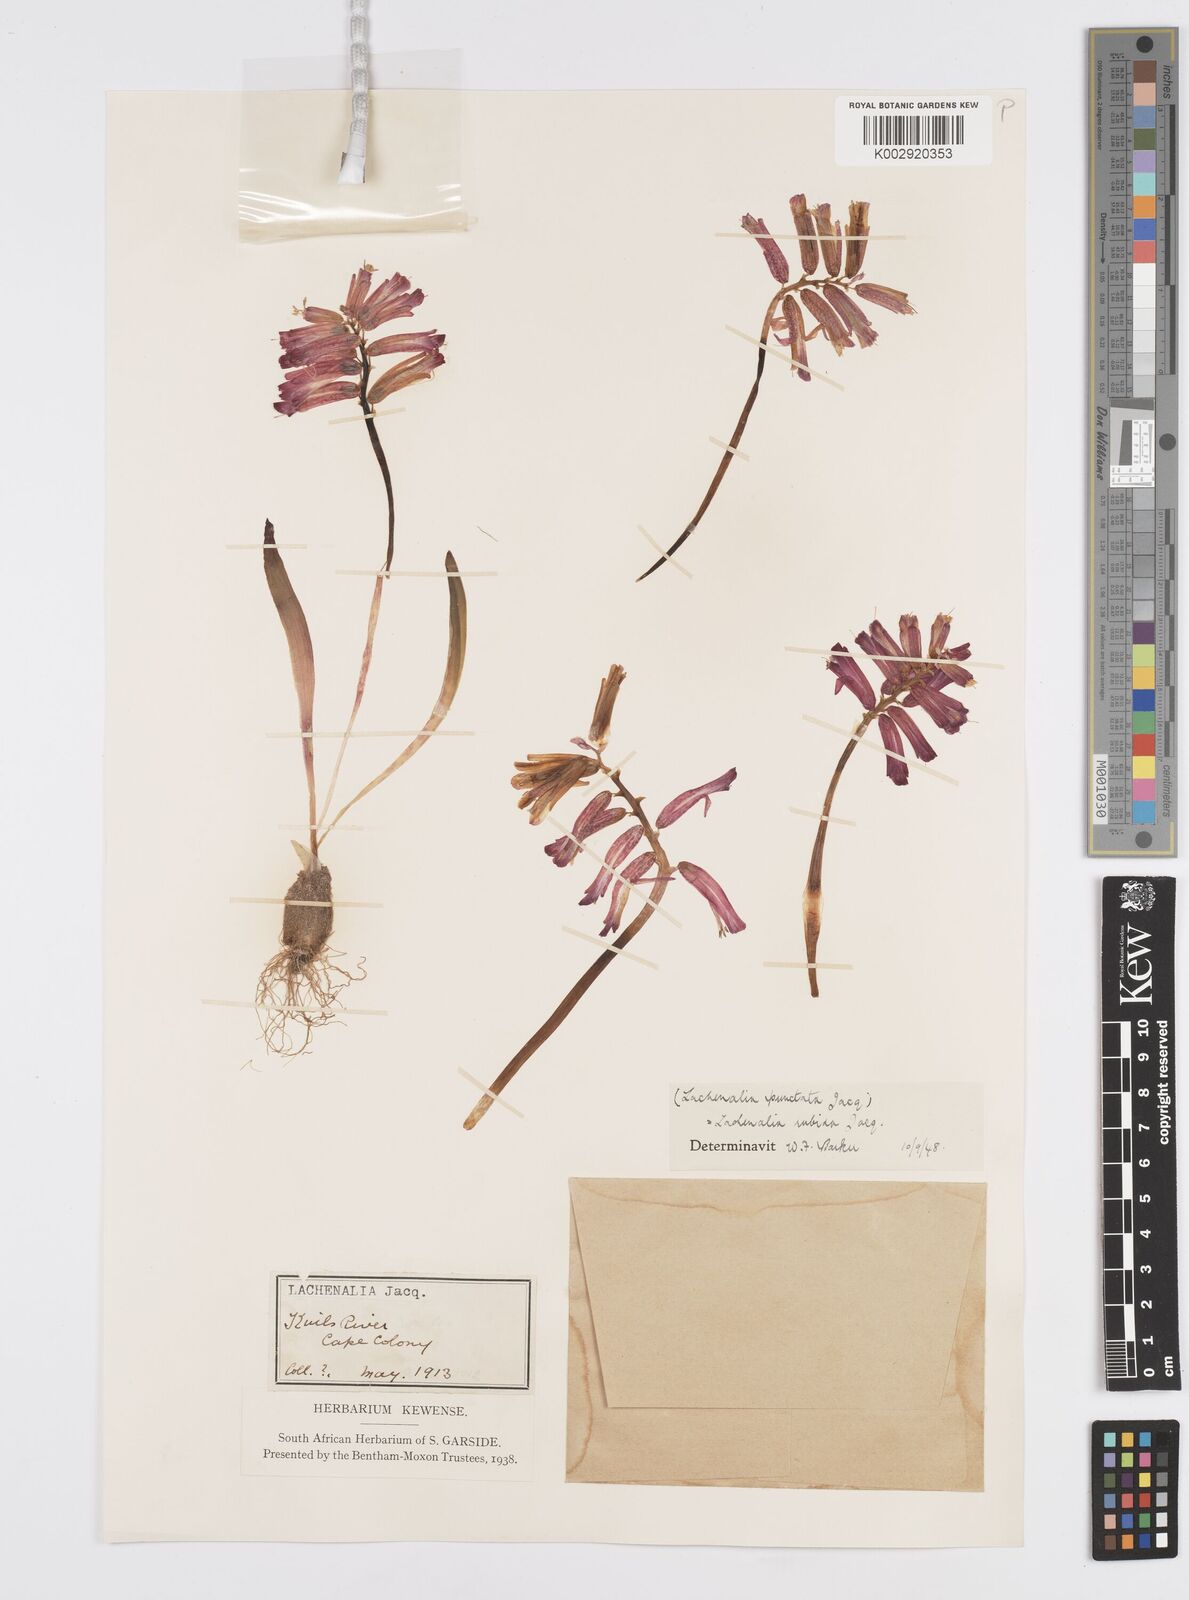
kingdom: Plantae
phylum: Tracheophyta
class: Liliopsida
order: Asparagales
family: Asparagaceae
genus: Lachenalia
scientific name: Lachenalia punctata
